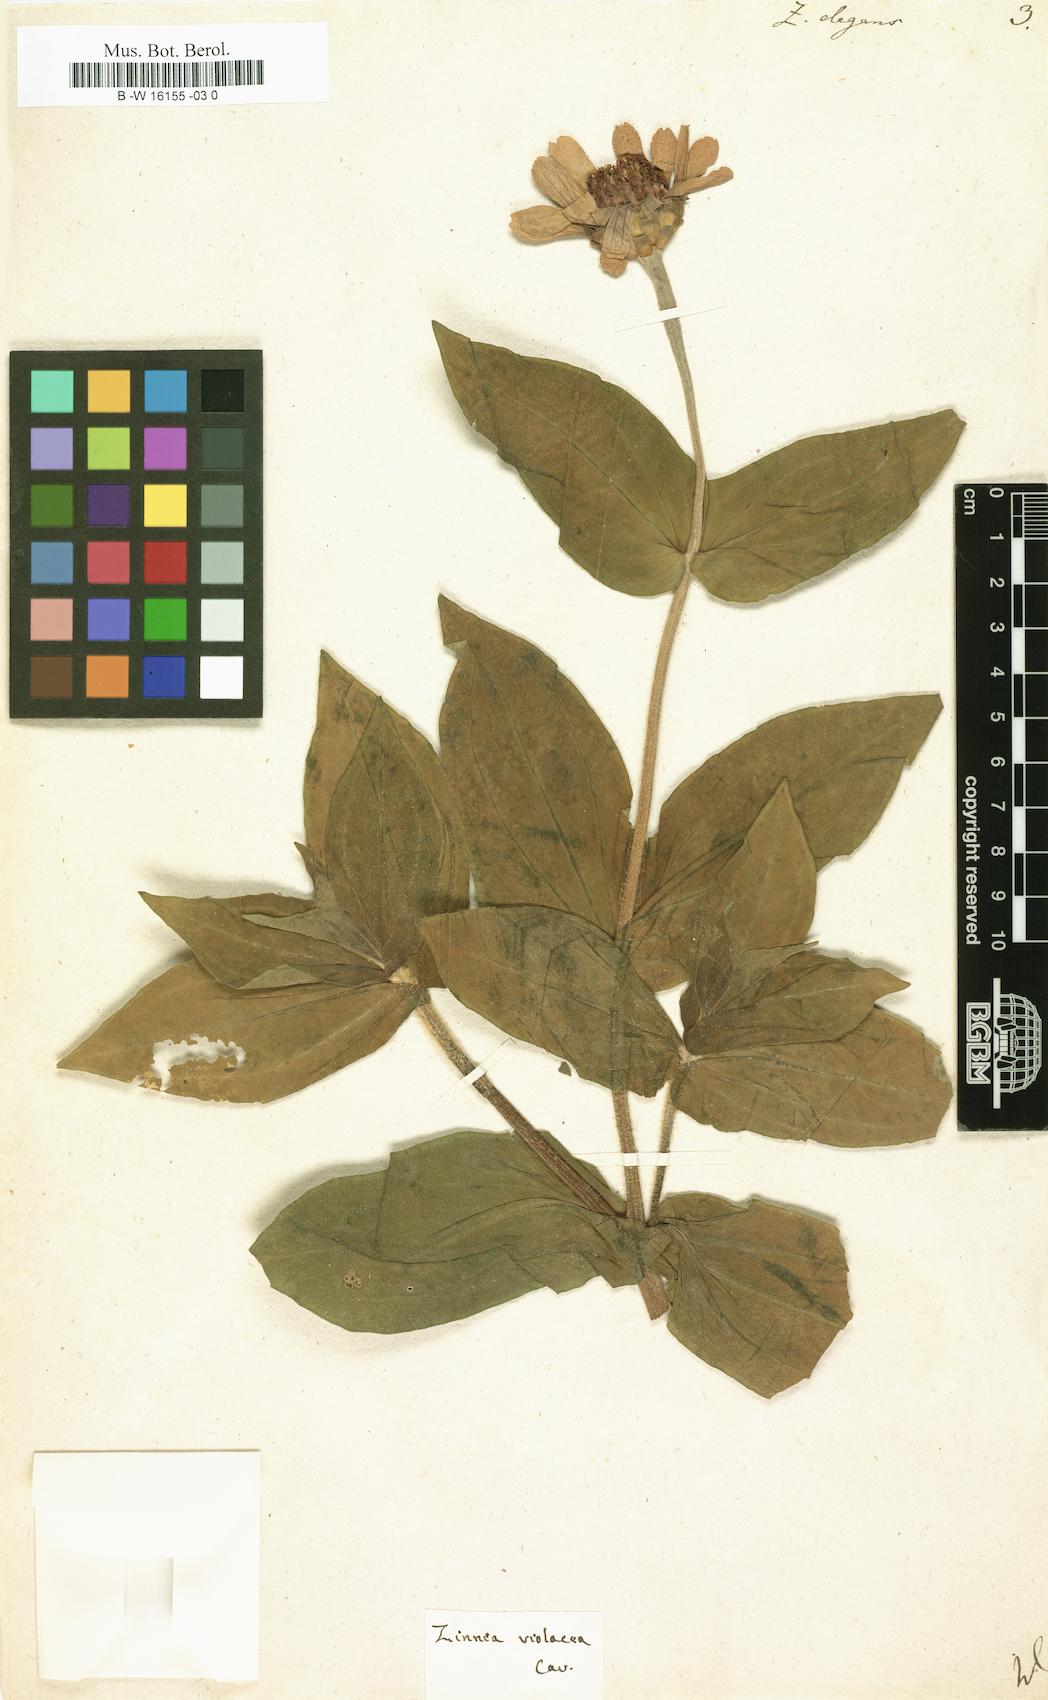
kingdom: Plantae
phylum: Tracheophyta
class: Magnoliopsida
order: Asterales
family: Asteraceae
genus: Zinnia
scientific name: Zinnia elegans
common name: Youth-and-age
